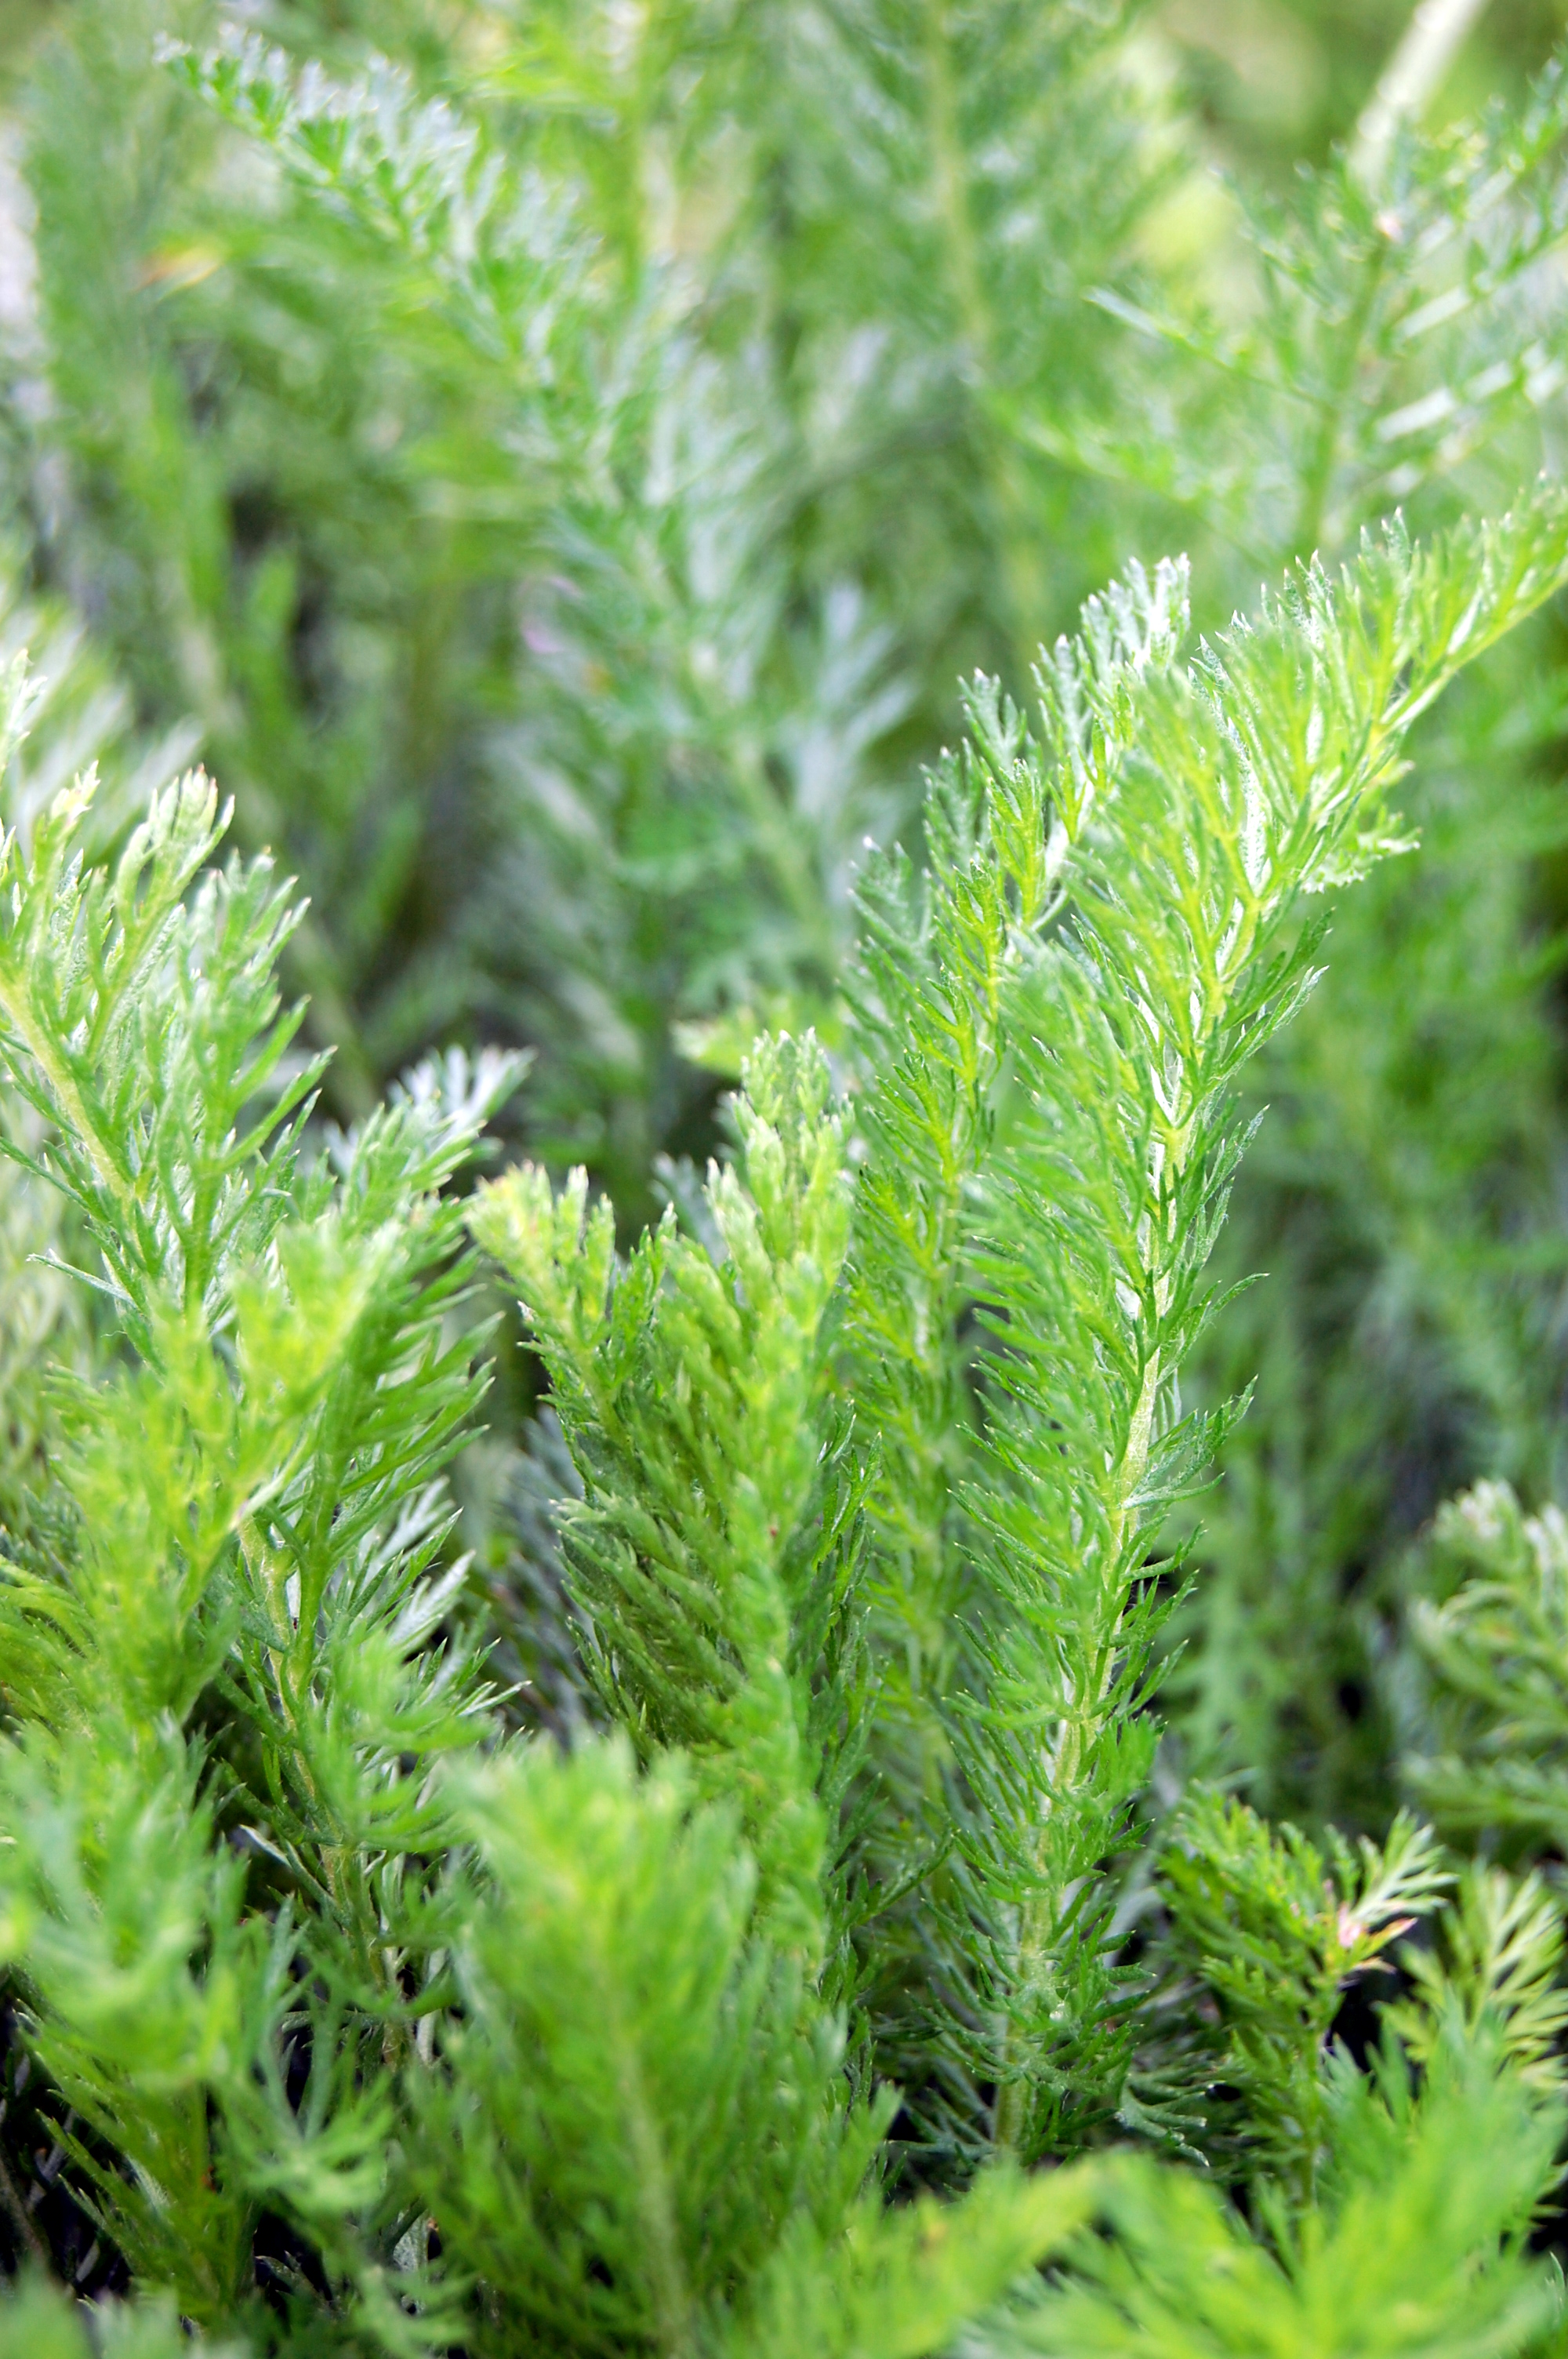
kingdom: Plantae
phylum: Tracheophyta
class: Magnoliopsida
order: Asterales
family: Asteraceae
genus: Achillea
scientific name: Achillea millefolium
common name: Yarrow
